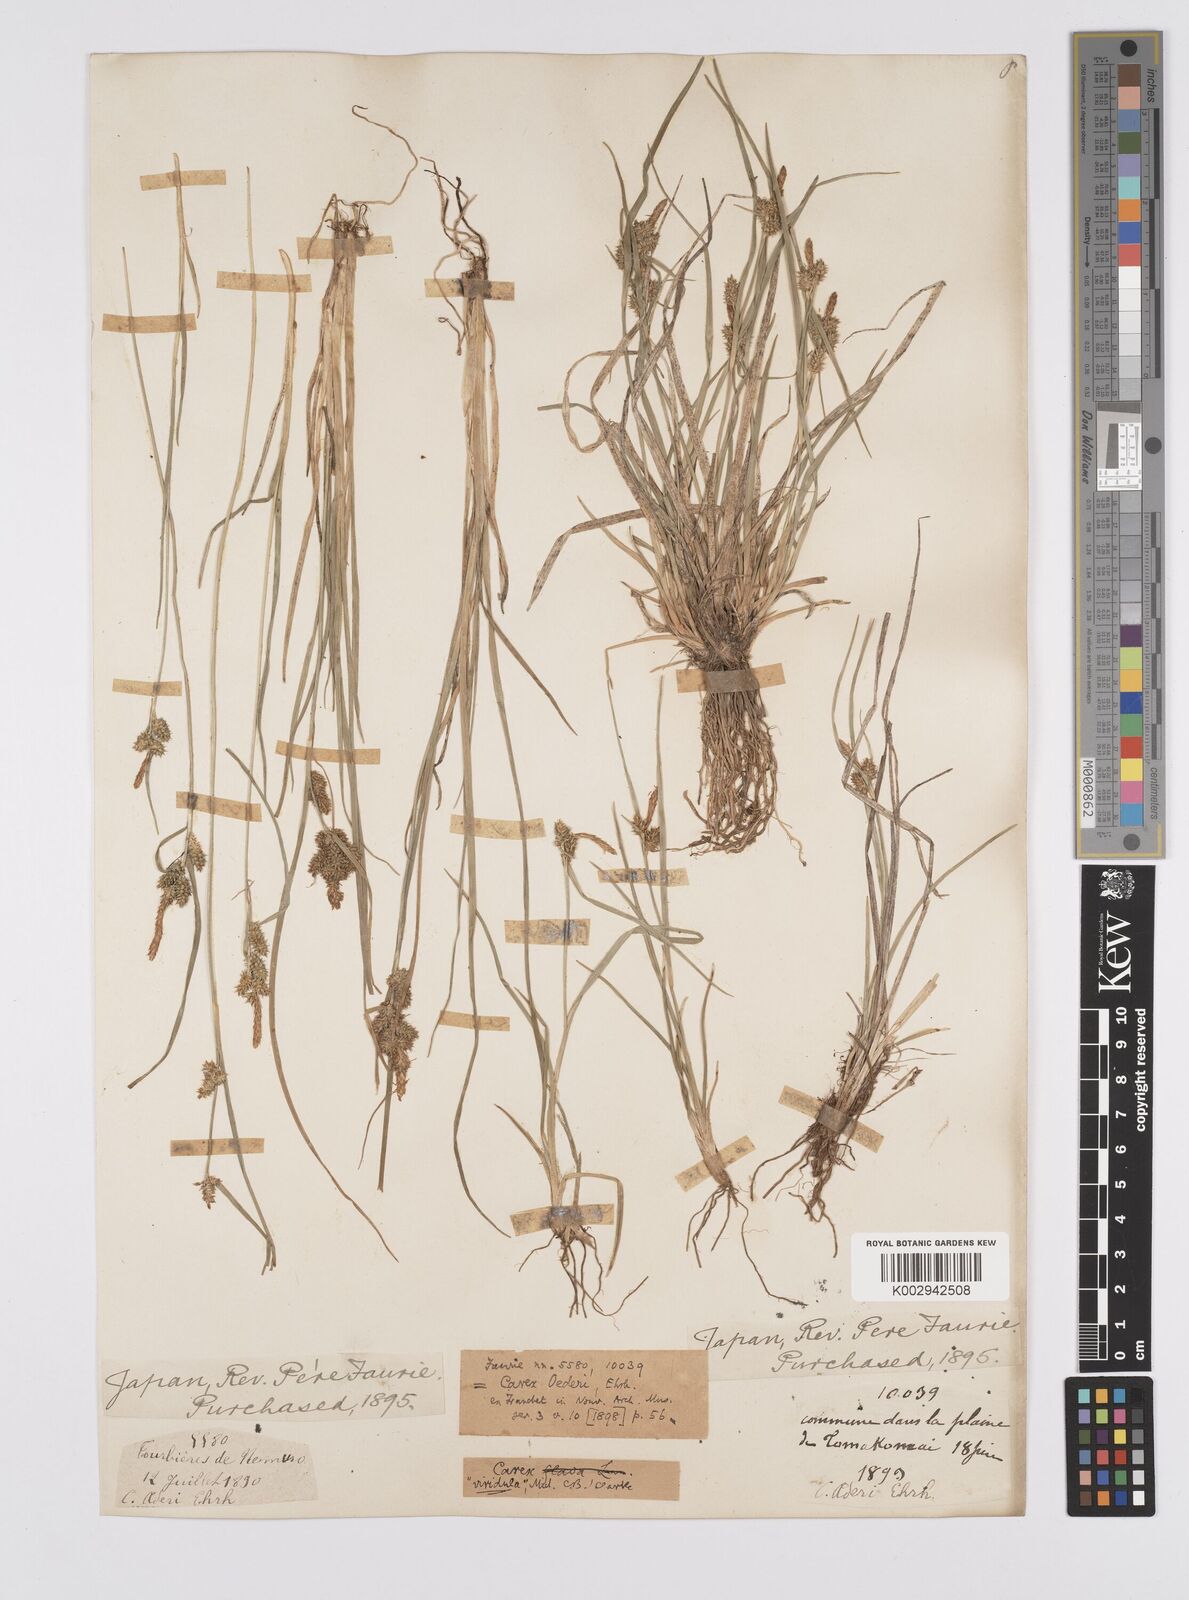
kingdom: Plantae
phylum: Tracheophyta
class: Liliopsida
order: Poales
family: Cyperaceae
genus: Carex
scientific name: Carex oederi
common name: Common & small-fruited yellow-sedge
